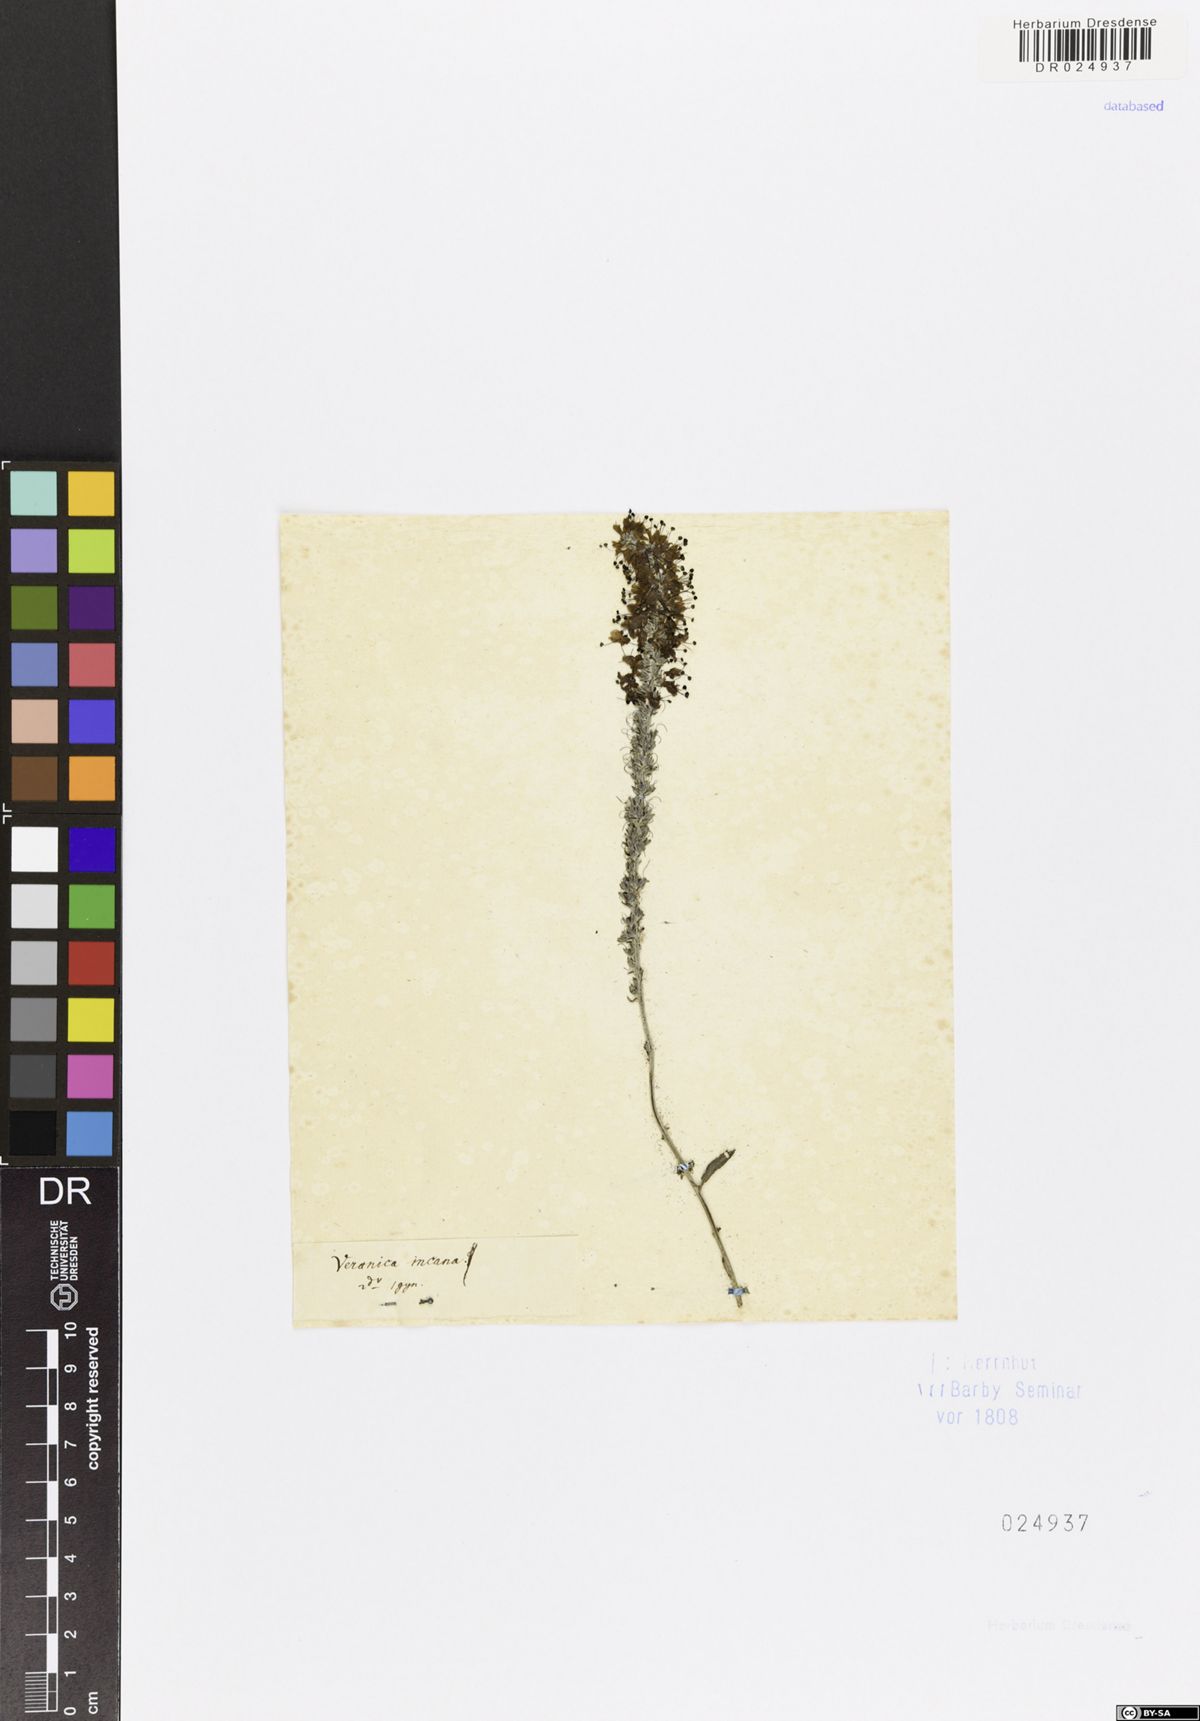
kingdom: Plantae
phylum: Tracheophyta
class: Magnoliopsida
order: Lamiales
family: Plantaginaceae
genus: Veronica
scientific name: Veronica incana
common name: Silver speedwell
